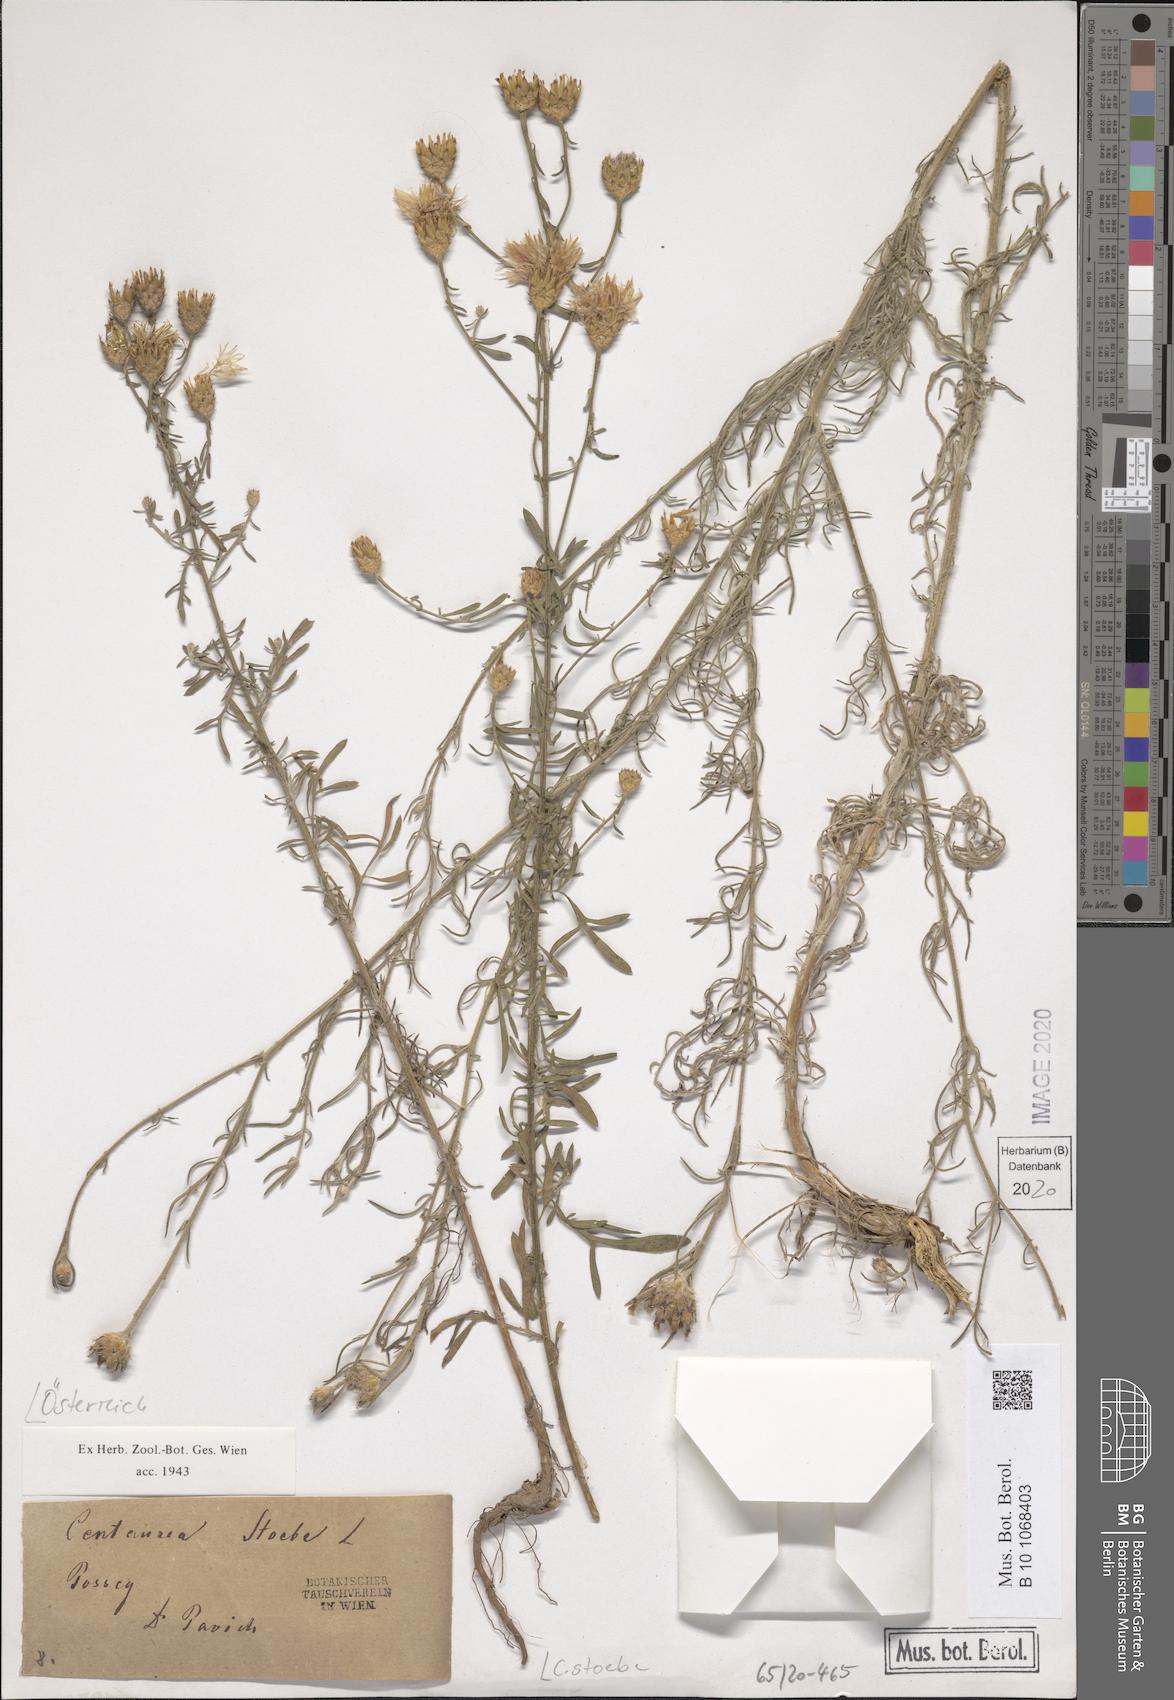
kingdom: Plantae
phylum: Tracheophyta
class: Magnoliopsida
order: Asterales
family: Asteraceae
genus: Centaurea
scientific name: Centaurea stoebe
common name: Spotted knapweed
